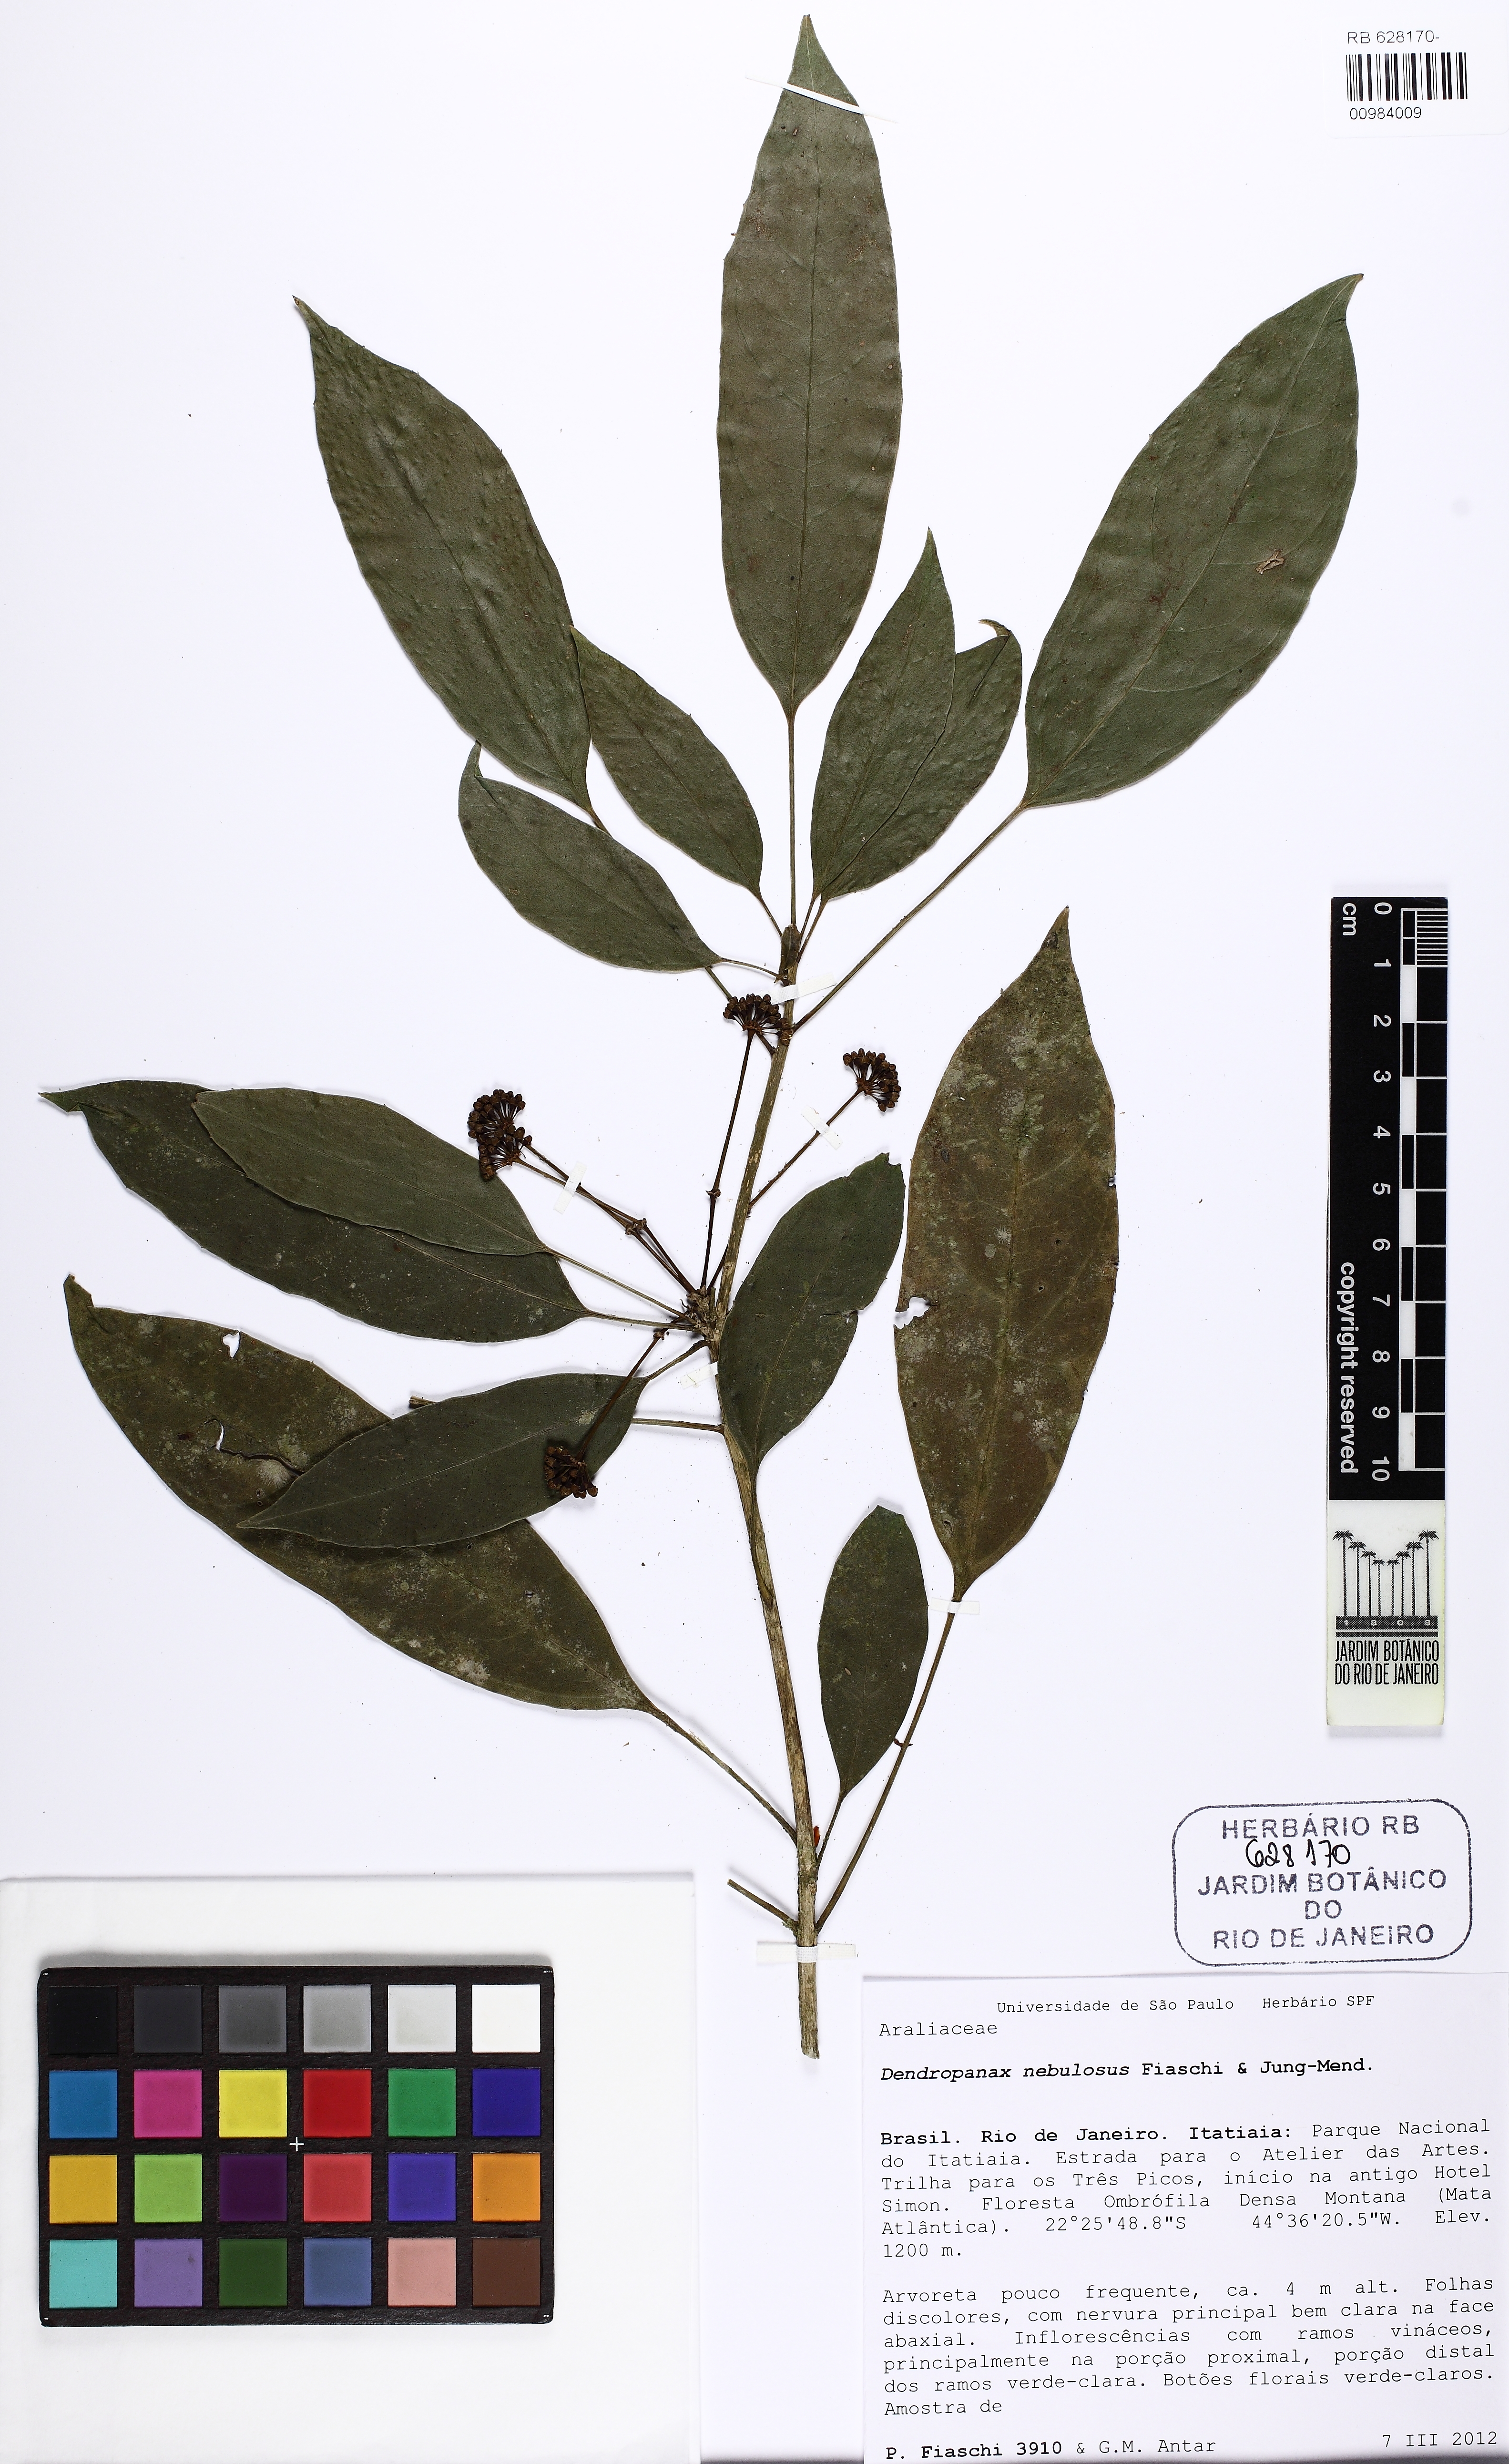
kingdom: Plantae
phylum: Tracheophyta
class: Magnoliopsida
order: Apiales
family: Araliaceae
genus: Dendropanax
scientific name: Dendropanax nebulosus
